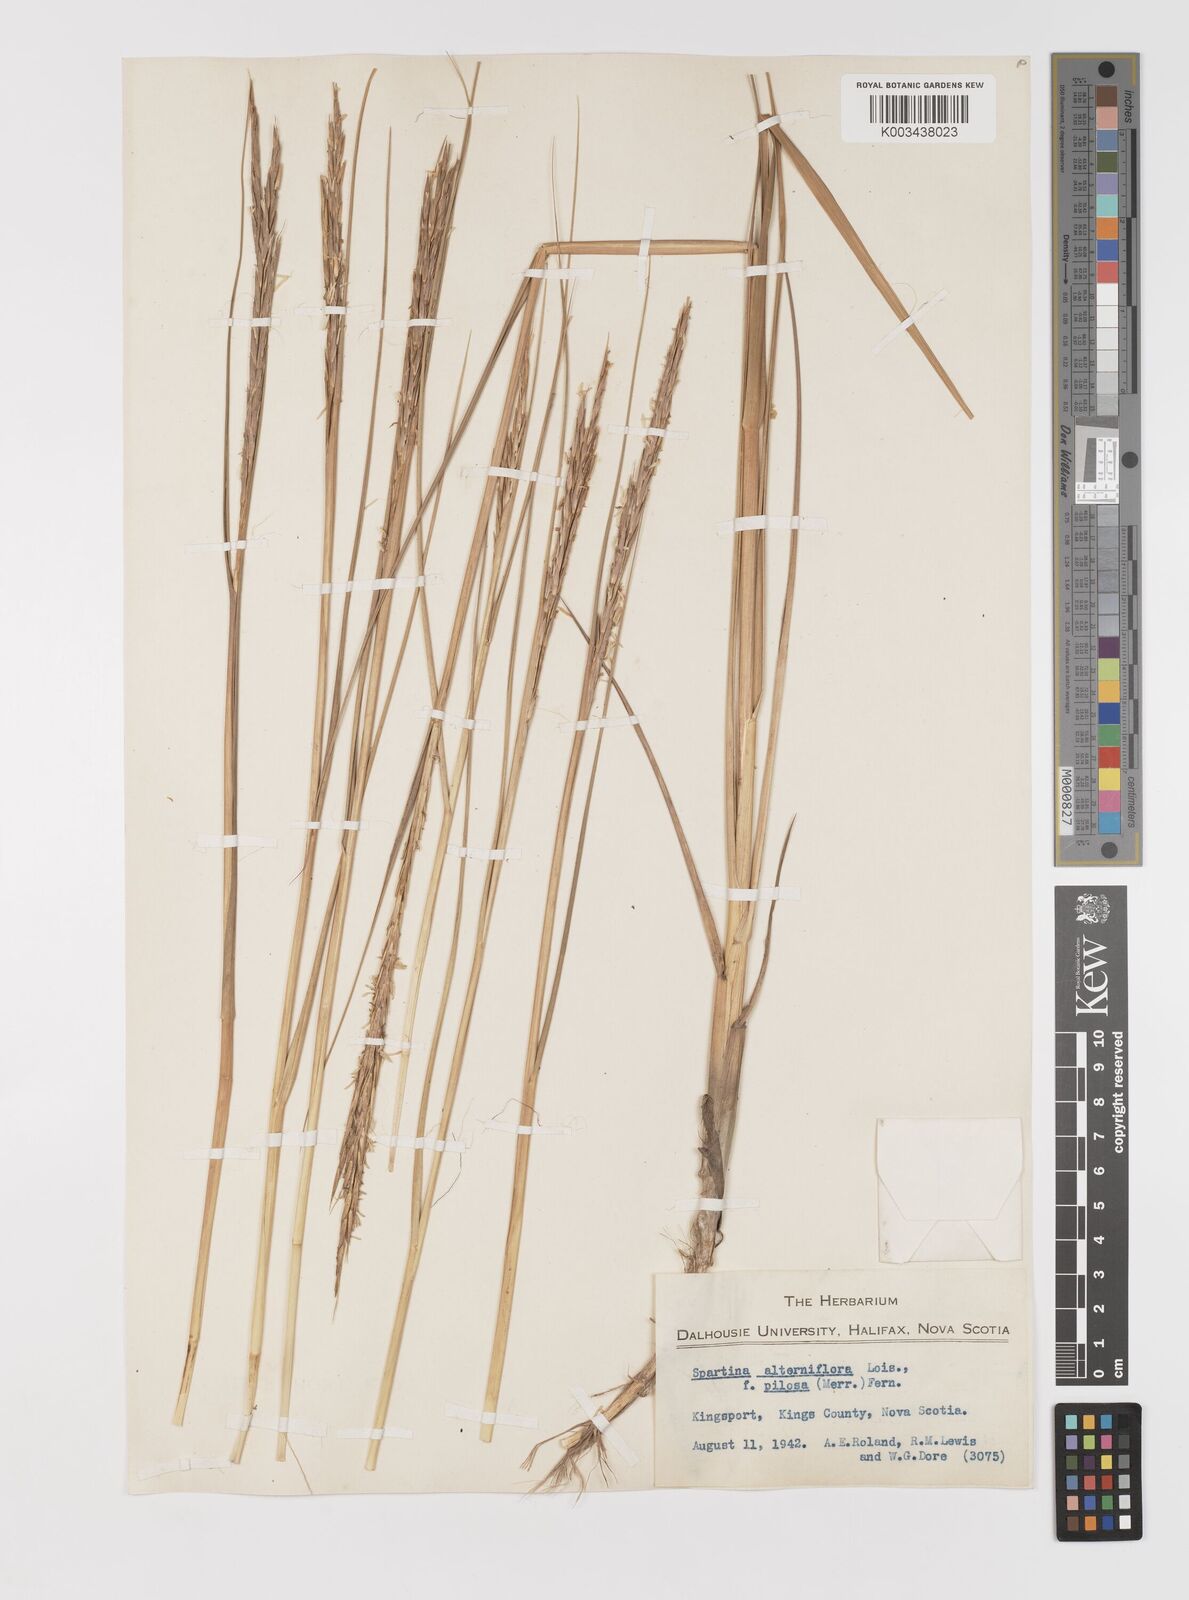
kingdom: Animalia
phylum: Mollusca
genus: Spartina
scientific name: Spartina
